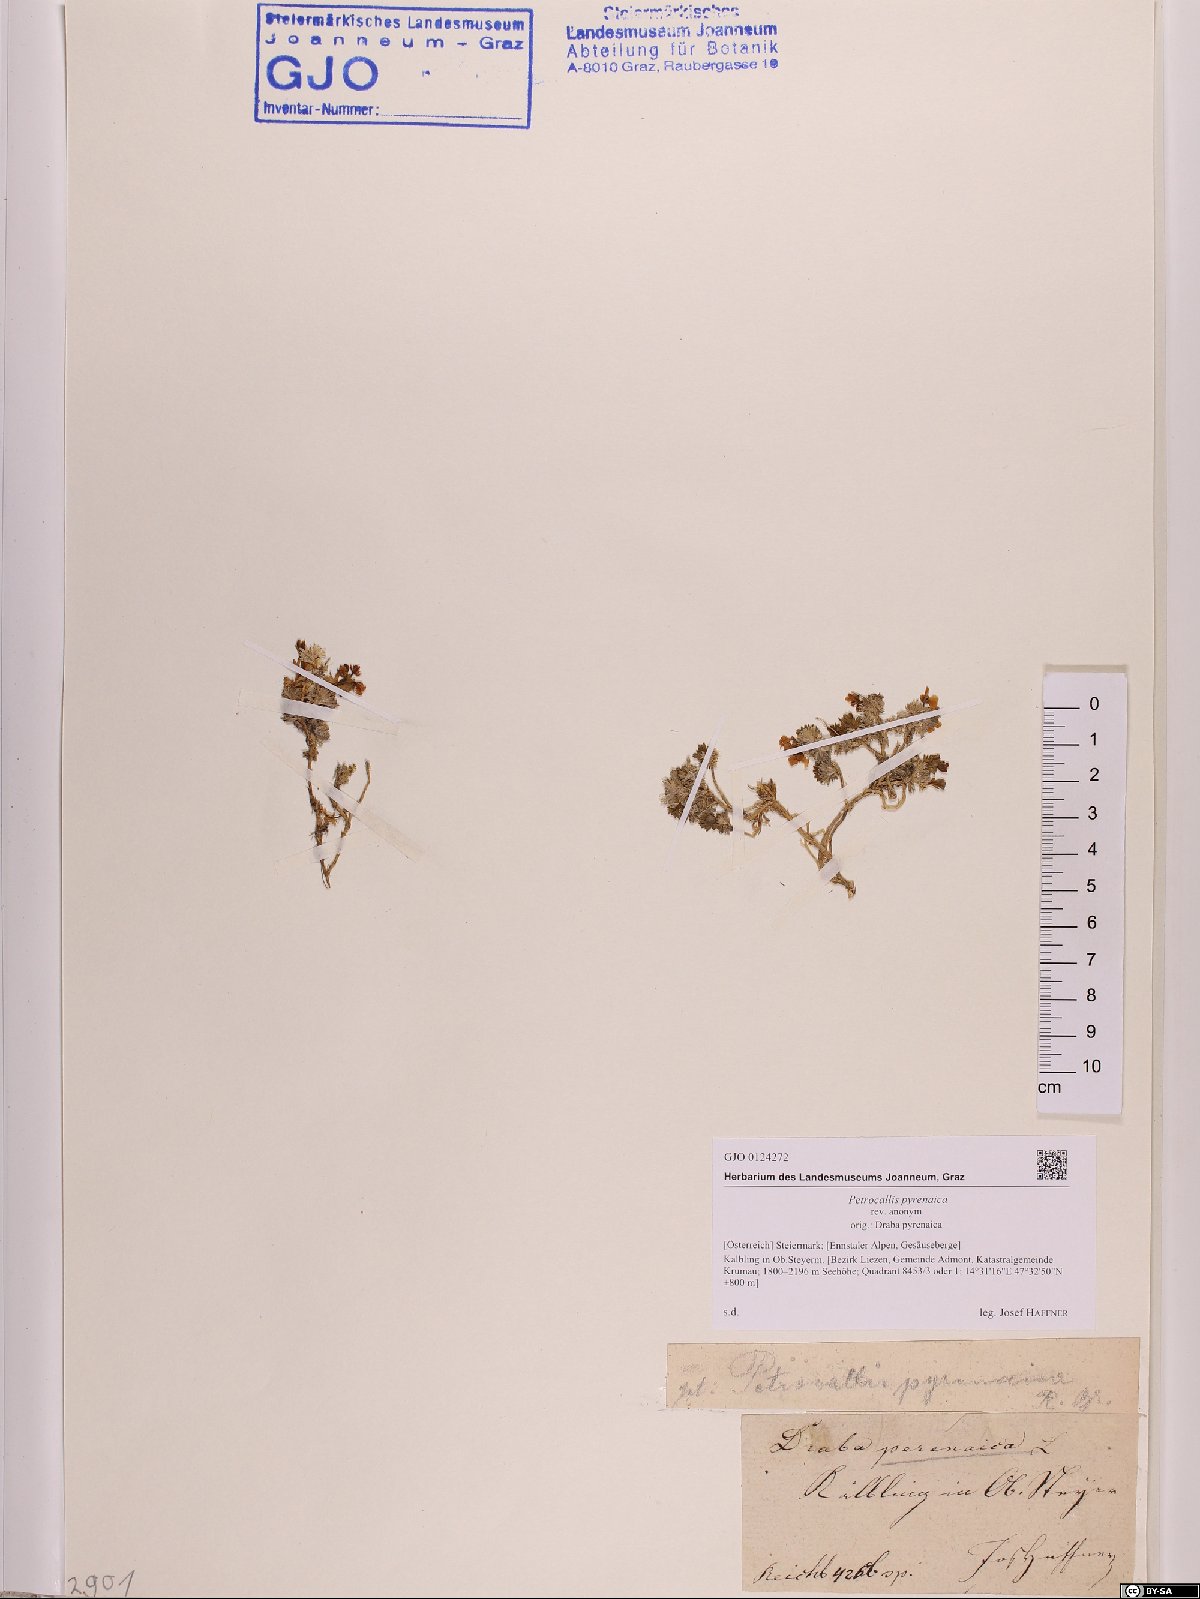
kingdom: Plantae
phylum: Tracheophyta
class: Magnoliopsida
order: Brassicales
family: Brassicaceae
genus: Petrocallis
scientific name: Petrocallis pyrenaica
